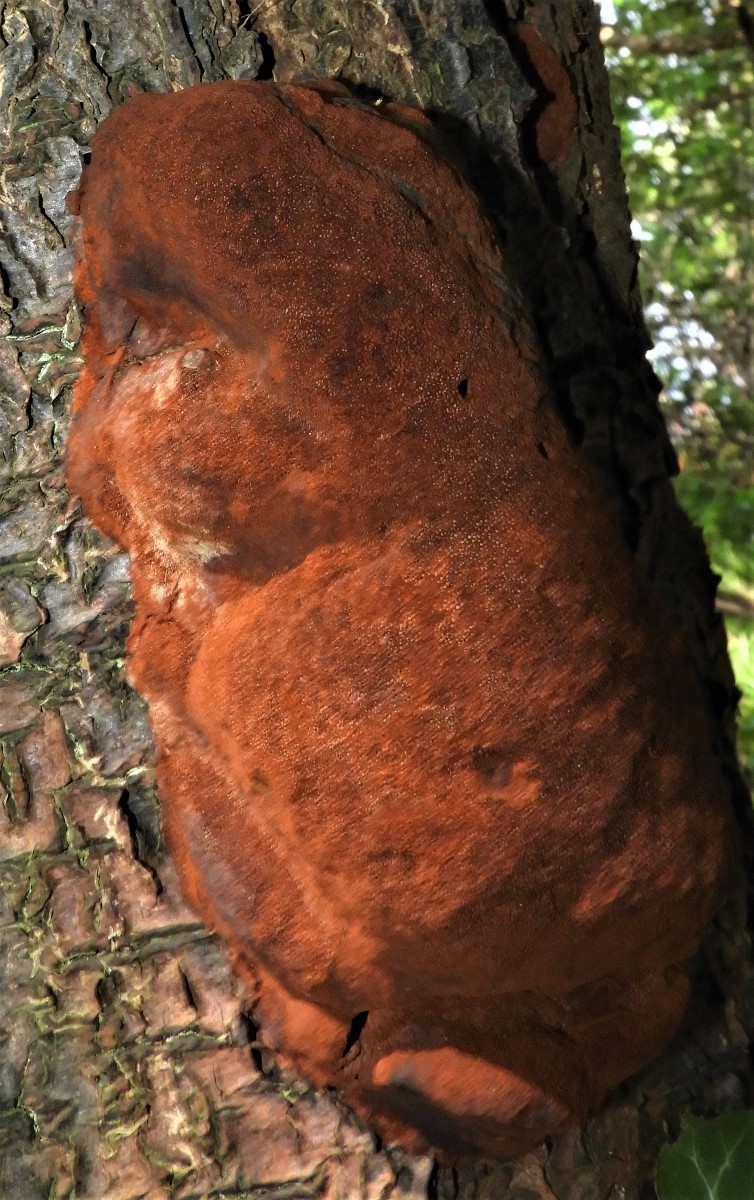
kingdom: Fungi
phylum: Basidiomycota
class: Agaricomycetes
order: Hymenochaetales
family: Hymenochaetaceae
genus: Phellinus
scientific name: Phellinus pomaceus
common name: blomme-ildporesvamp
